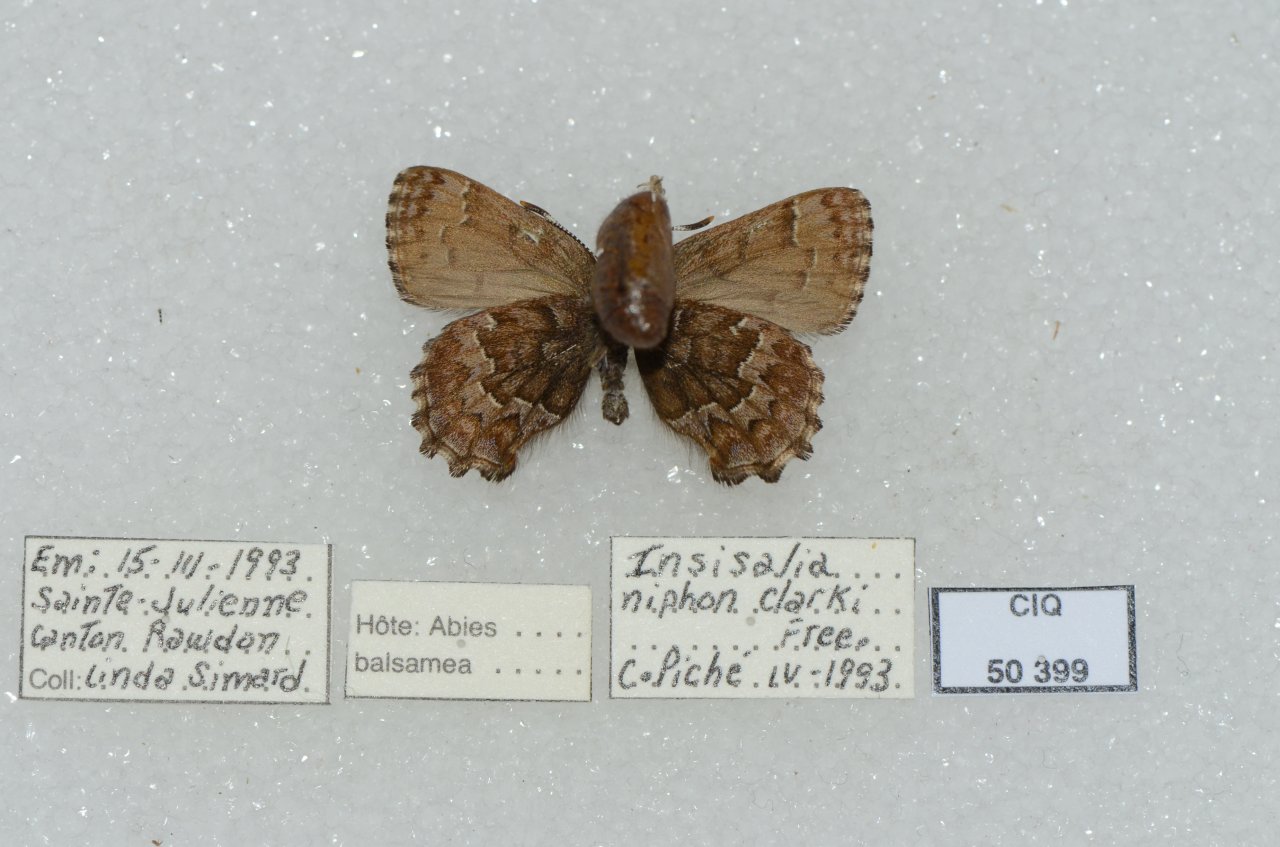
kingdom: Animalia
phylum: Arthropoda
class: Insecta
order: Lepidoptera
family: Lycaenidae
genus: Incisalia
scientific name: Incisalia niphon
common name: Eastern Pine Elfin
